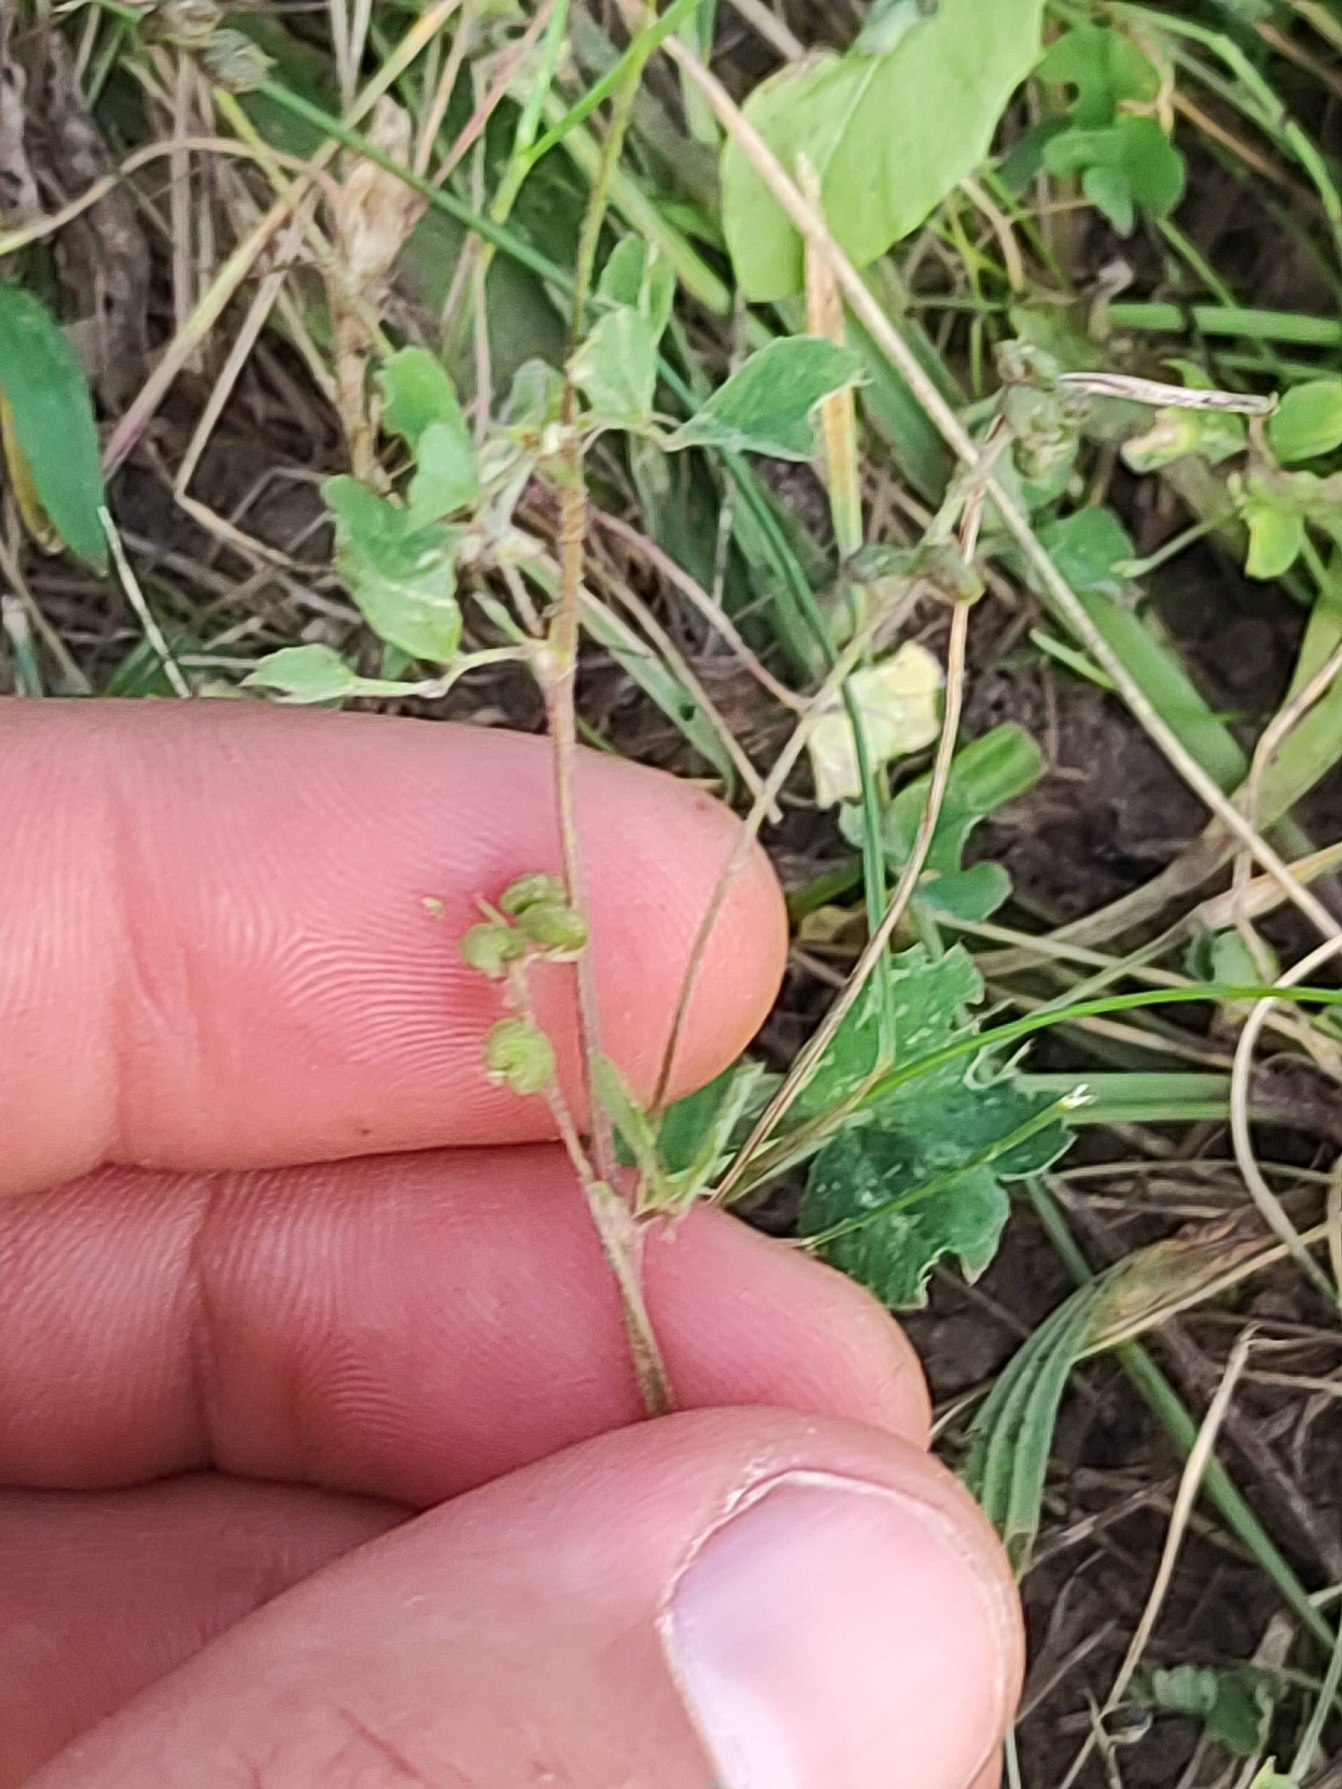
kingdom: Plantae
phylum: Tracheophyta
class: Magnoliopsida
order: Fabales
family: Fabaceae
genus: Medicago
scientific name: Medicago lupulina
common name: Humle-sneglebælg
